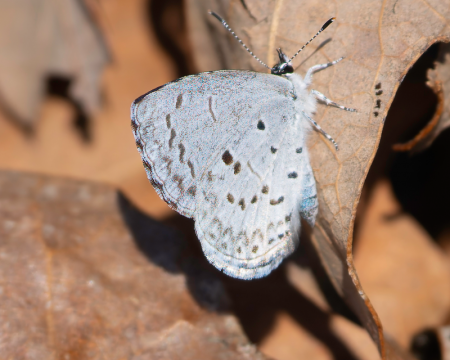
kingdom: Animalia
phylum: Arthropoda
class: Insecta
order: Lepidoptera
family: Lycaenidae
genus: Celastrina
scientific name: Celastrina ladon
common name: Spring Azure
